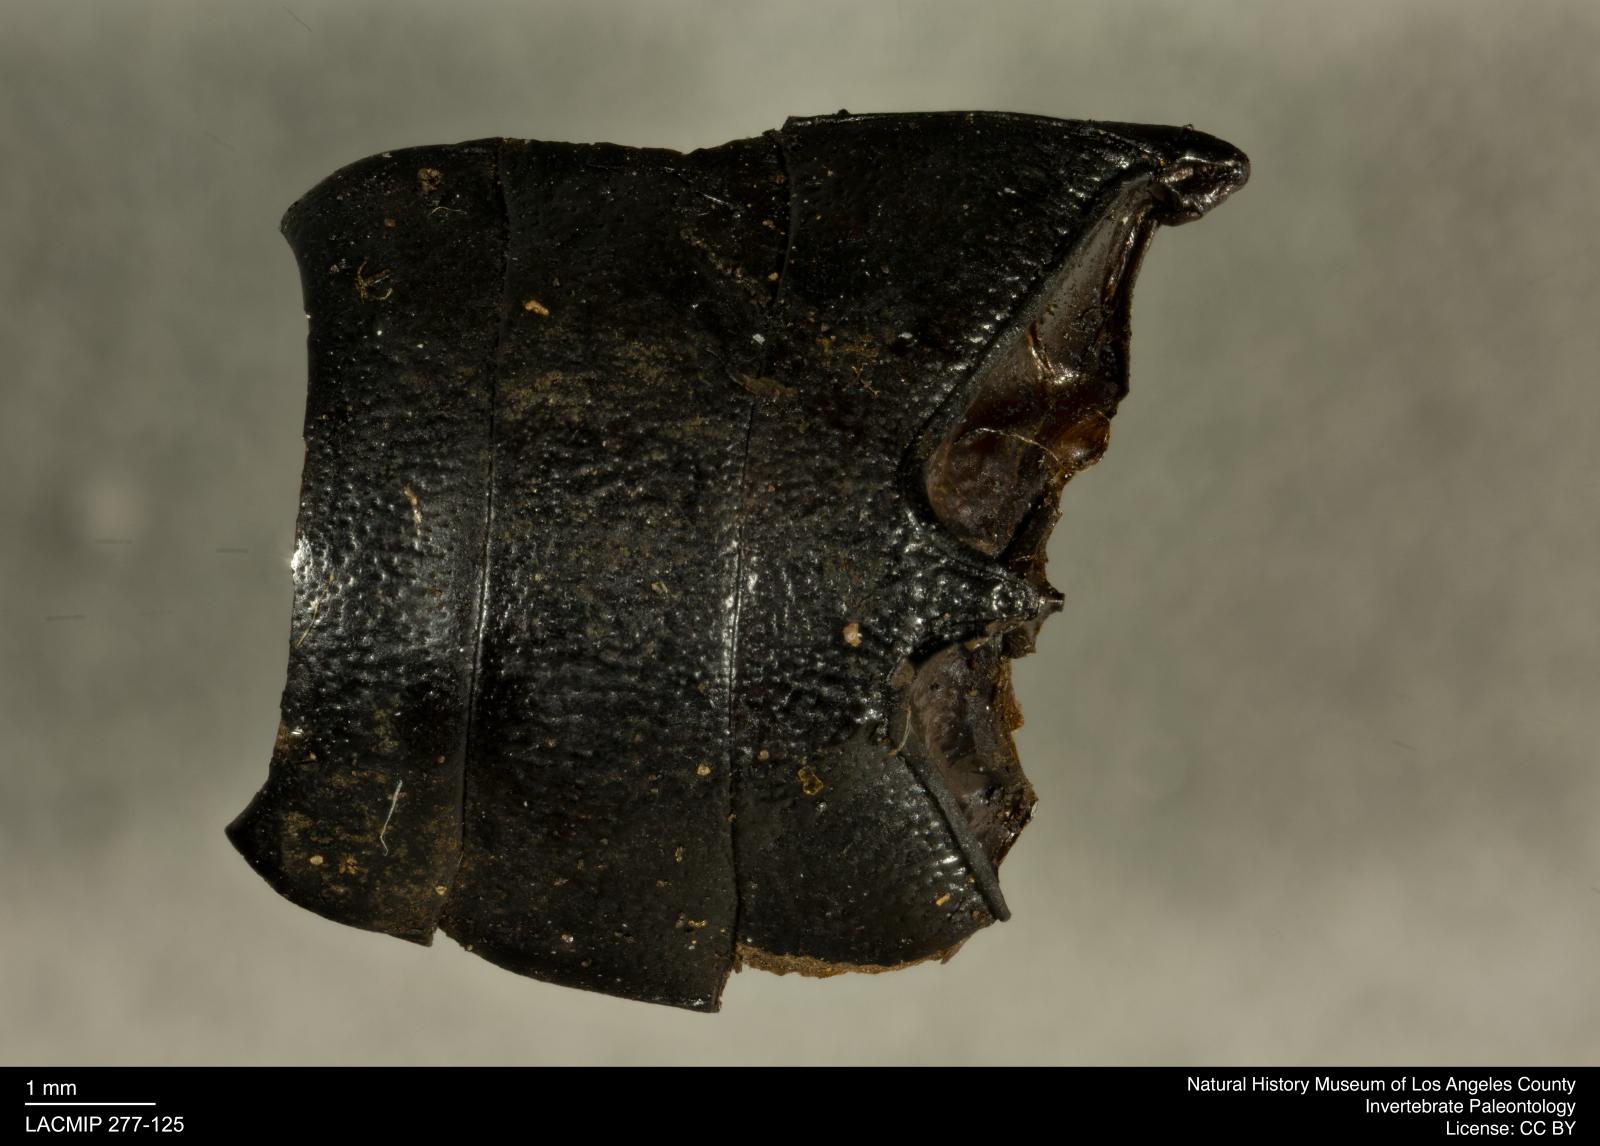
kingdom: Animalia
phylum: Arthropoda
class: Insecta
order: Coleoptera
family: Tenebrionidae
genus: Coniontis
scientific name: Coniontis abdominalis
